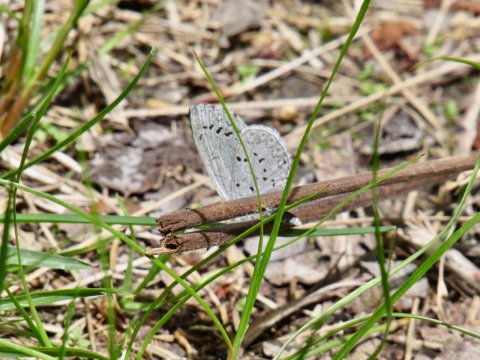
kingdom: Animalia
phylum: Arthropoda
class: Insecta
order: Lepidoptera
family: Lycaenidae
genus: Celastrina
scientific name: Celastrina serotina
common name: Cherry Gall Azure
